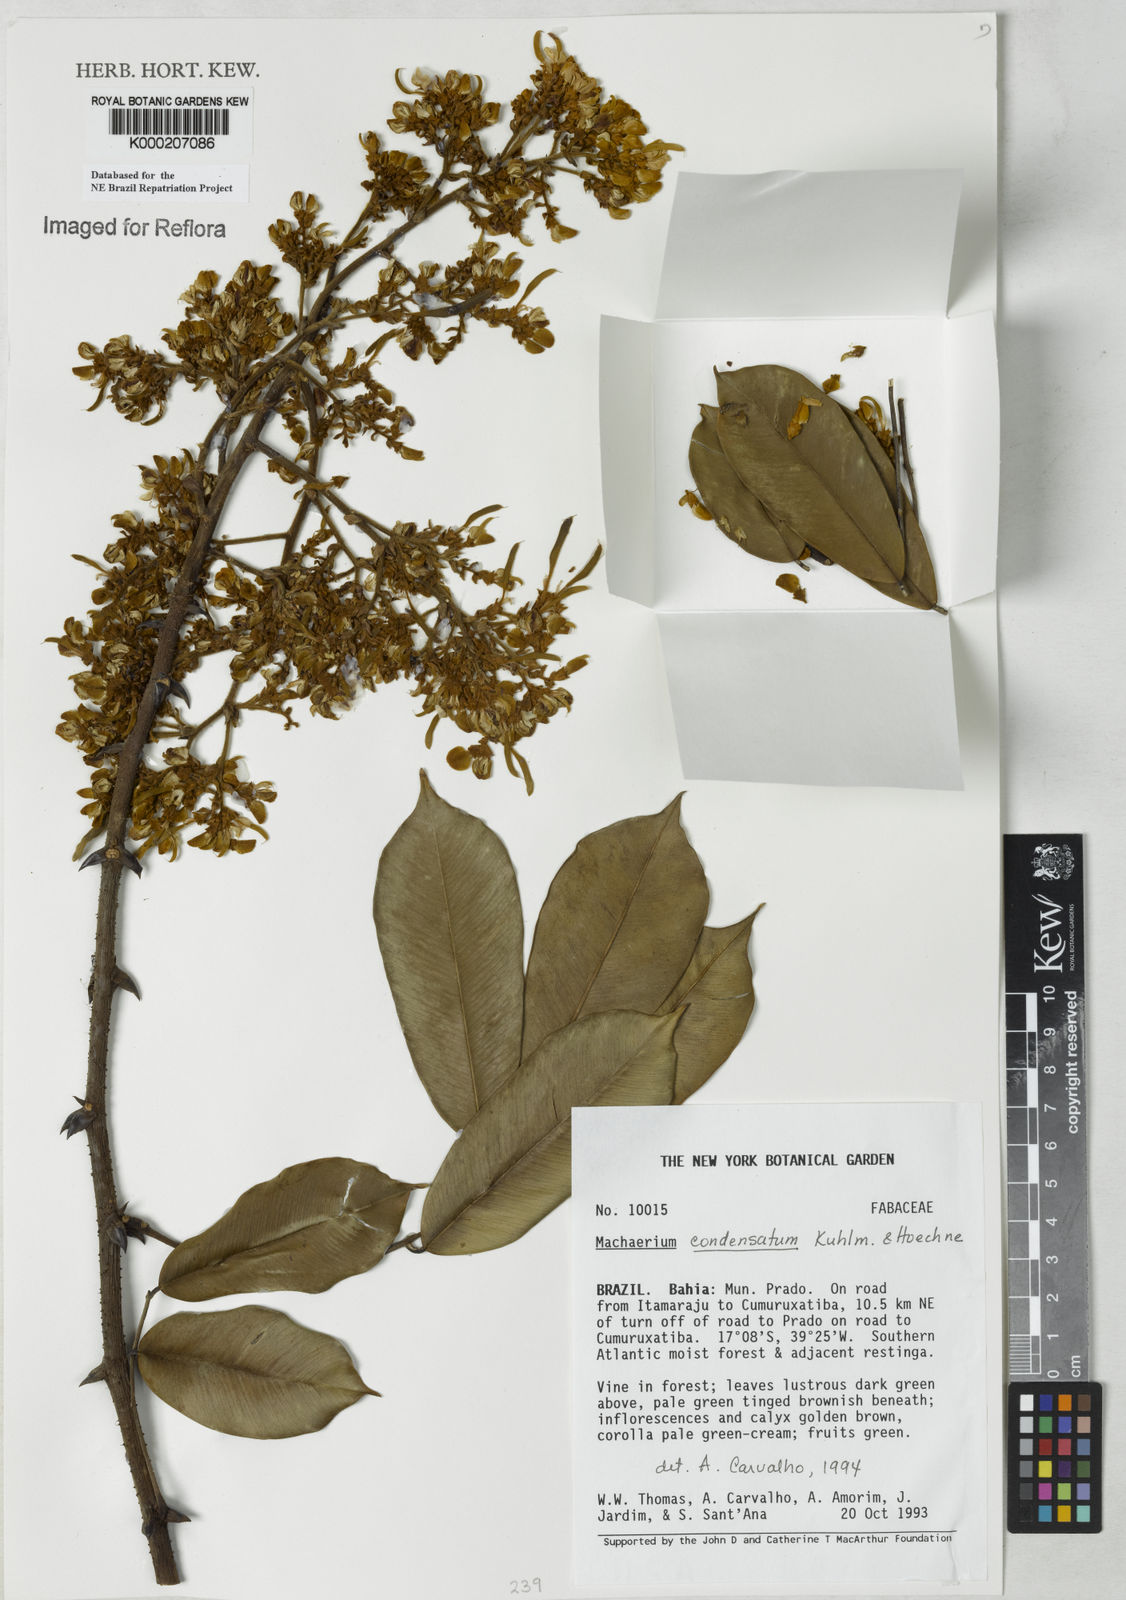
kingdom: Plantae
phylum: Tracheophyta
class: Magnoliopsida
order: Fabales
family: Fabaceae
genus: Machaerium
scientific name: Machaerium condensatum
